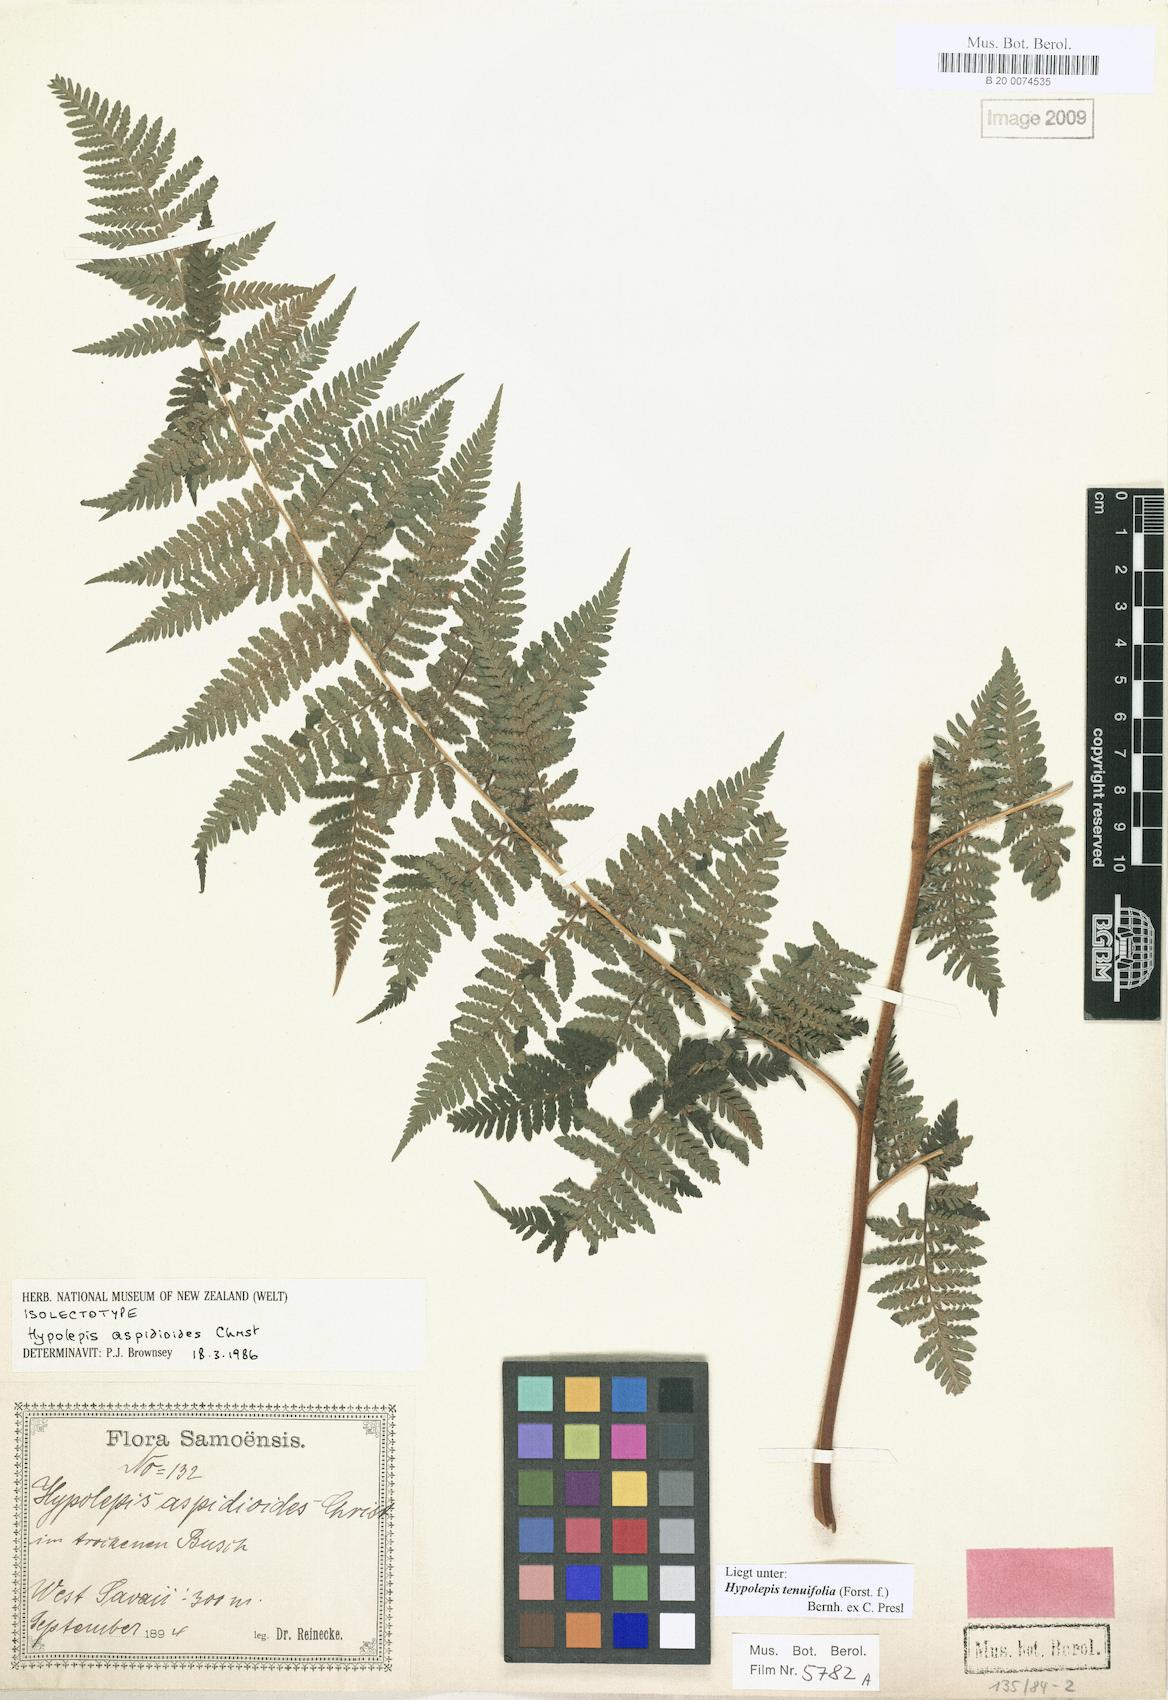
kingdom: Plantae
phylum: Tracheophyta
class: Polypodiopsida
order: Polypodiales
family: Dennstaedtiaceae
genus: Hypolepis
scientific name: Hypolepis tenuifolia
